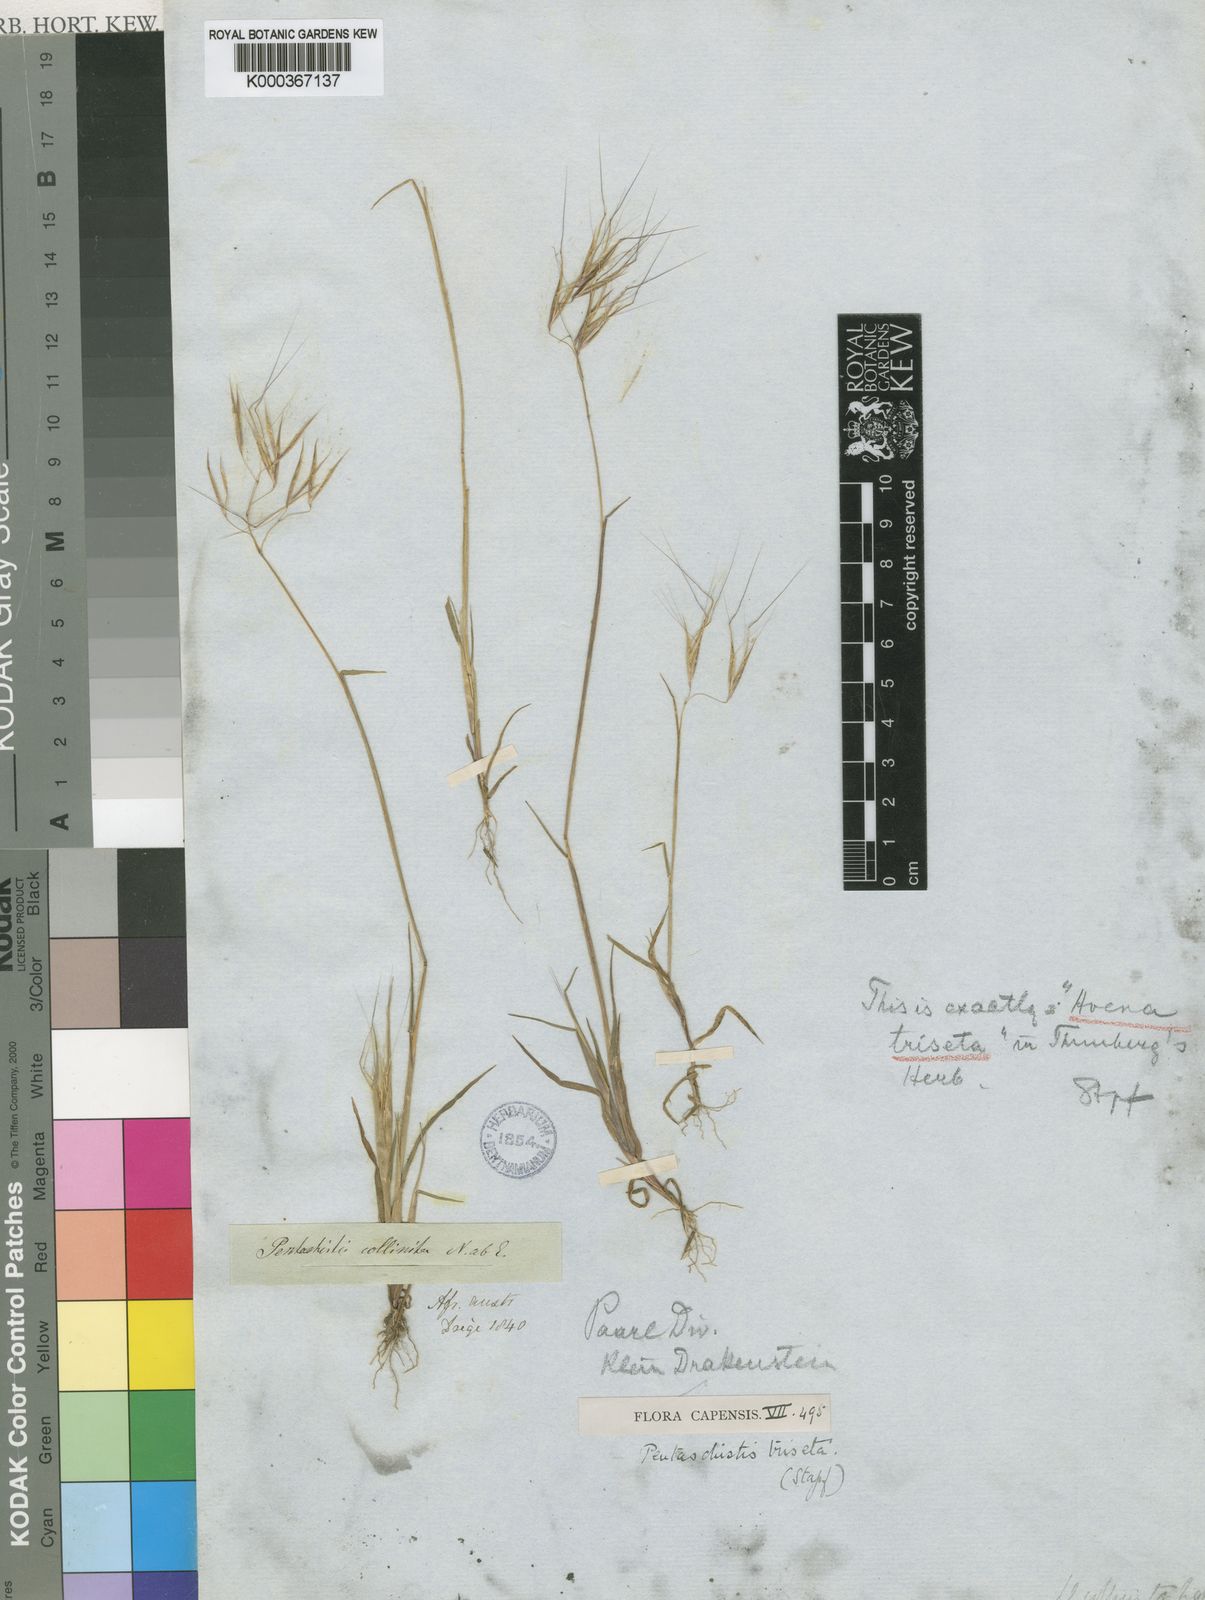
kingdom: Plantae
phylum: Tracheophyta
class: Liliopsida
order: Poales
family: Poaceae
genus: Pentameris
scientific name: Pentameris triseta
